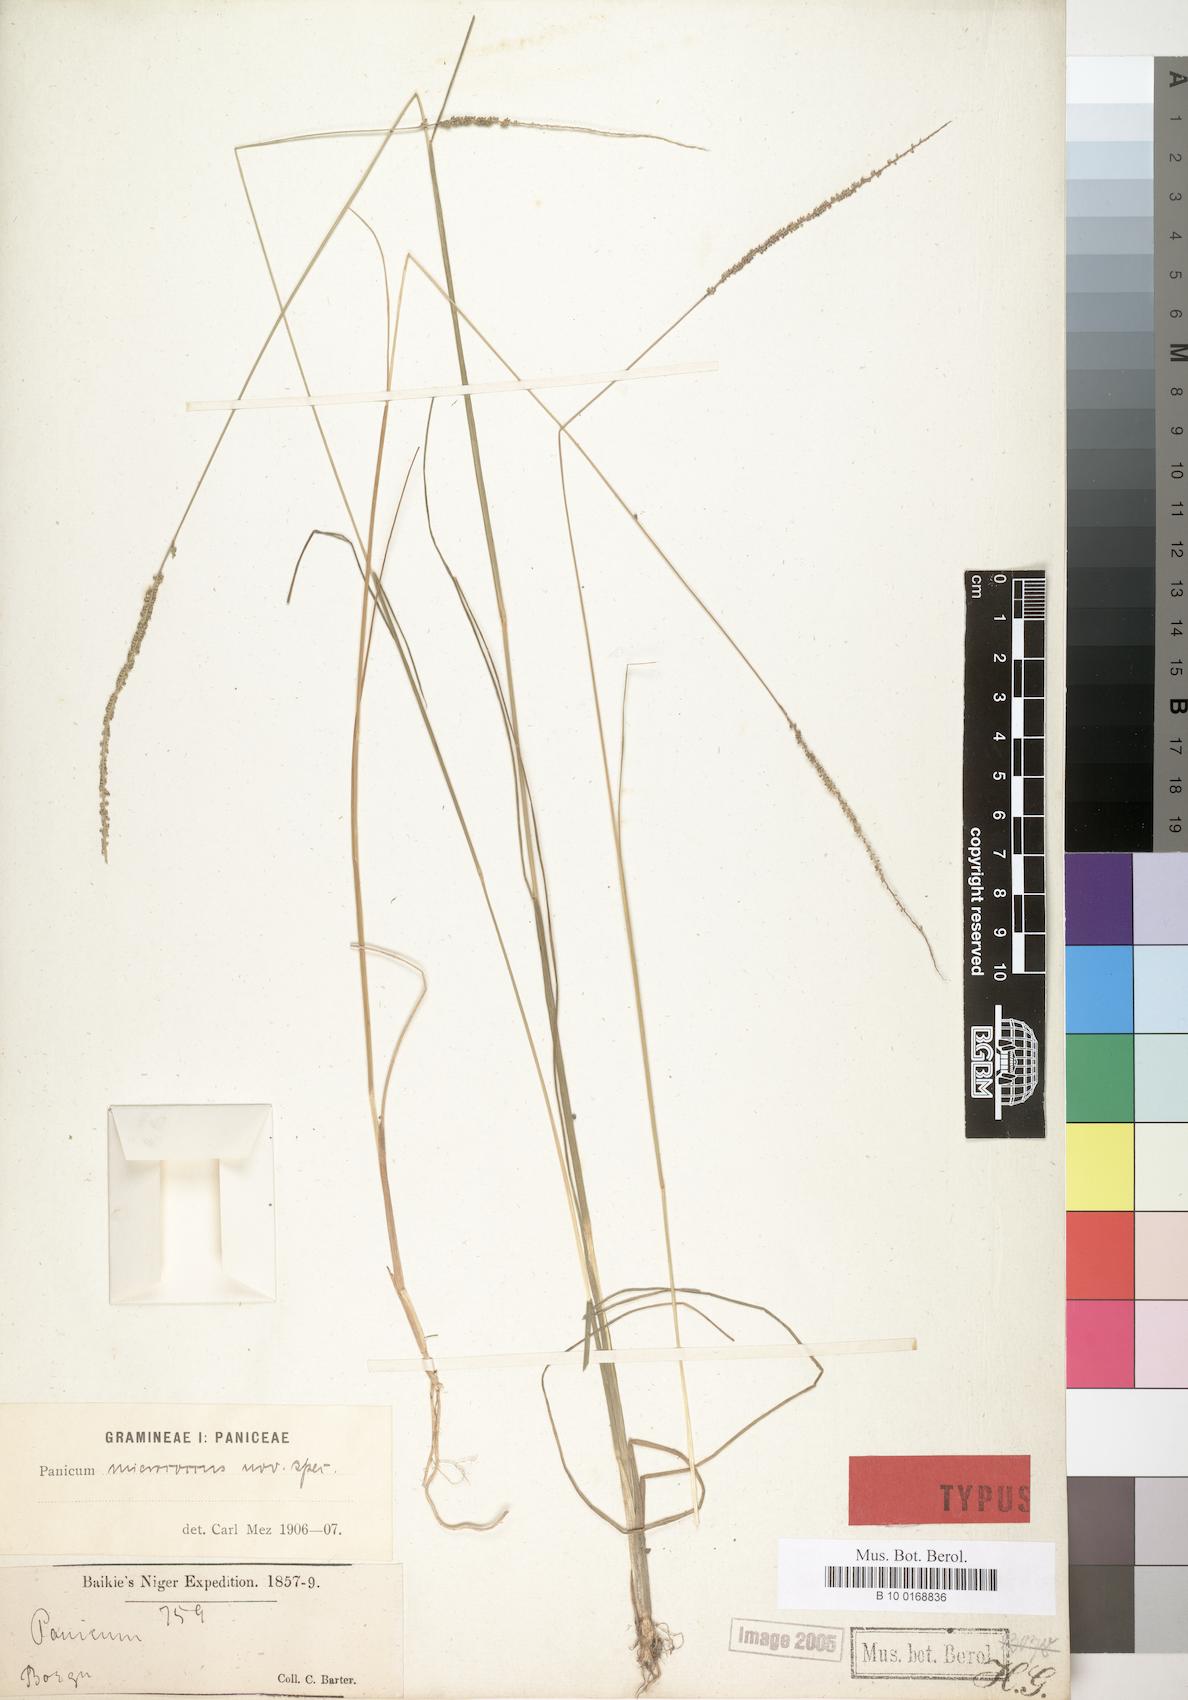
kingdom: Plantae
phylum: Tracheophyta
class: Liliopsida
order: Poales
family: Poaceae
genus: Sacciolepis
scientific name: Sacciolepis micrococca
